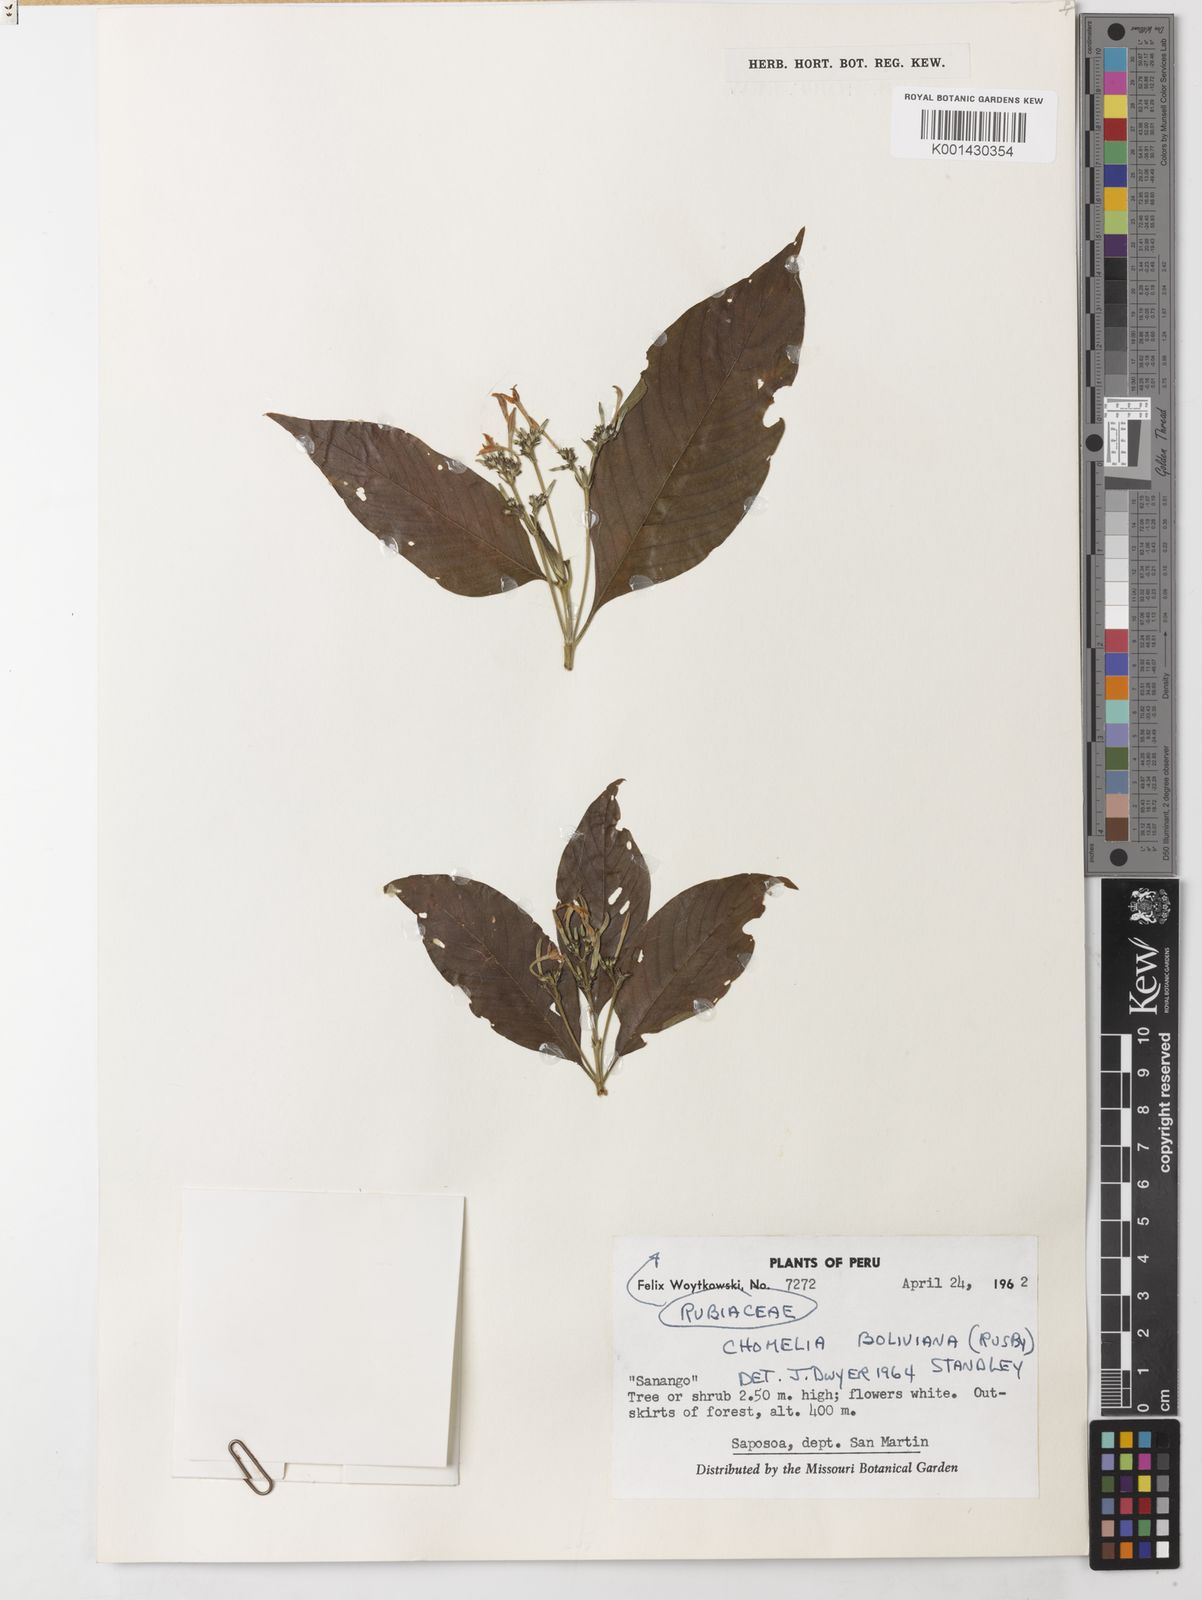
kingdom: Plantae
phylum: Tracheophyta
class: Magnoliopsida
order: Gentianales
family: Rubiaceae
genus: Chomelia
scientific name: Chomelia paniculata
